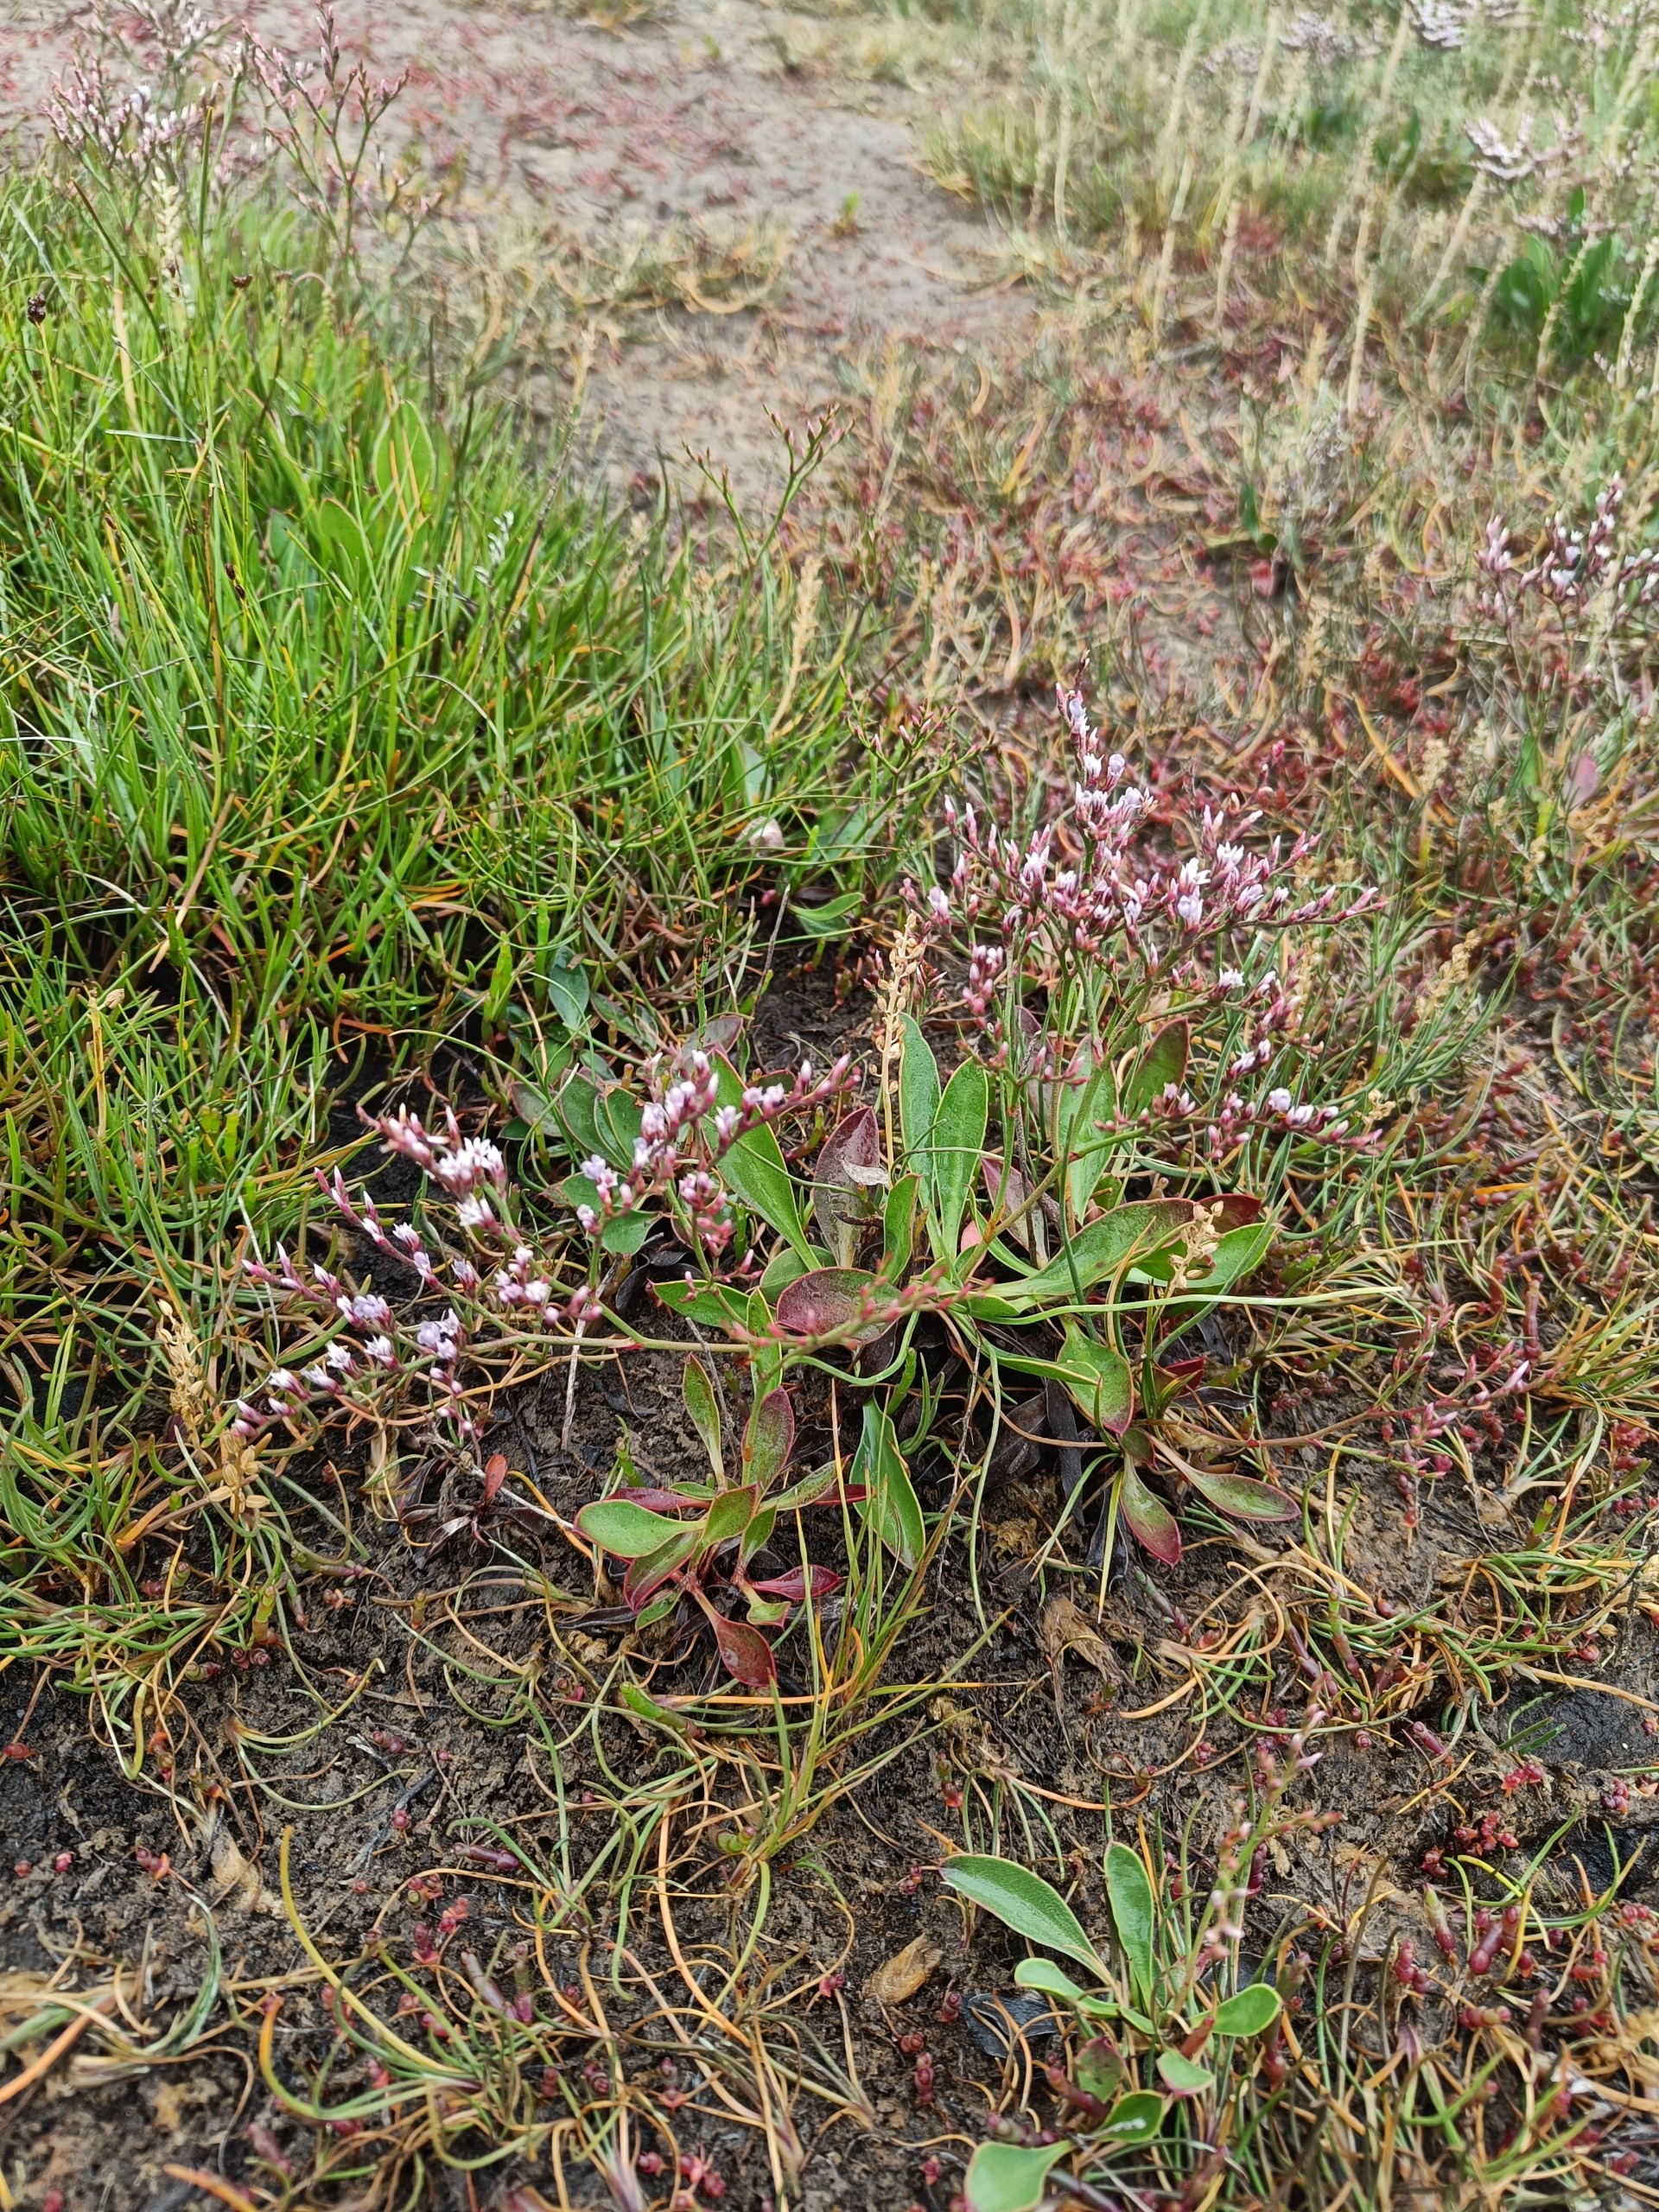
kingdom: Plantae
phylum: Tracheophyta
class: Magnoliopsida
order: Caryophyllales
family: Plumbaginaceae
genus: Limonium
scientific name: Limonium humile
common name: Lav hindebæger
